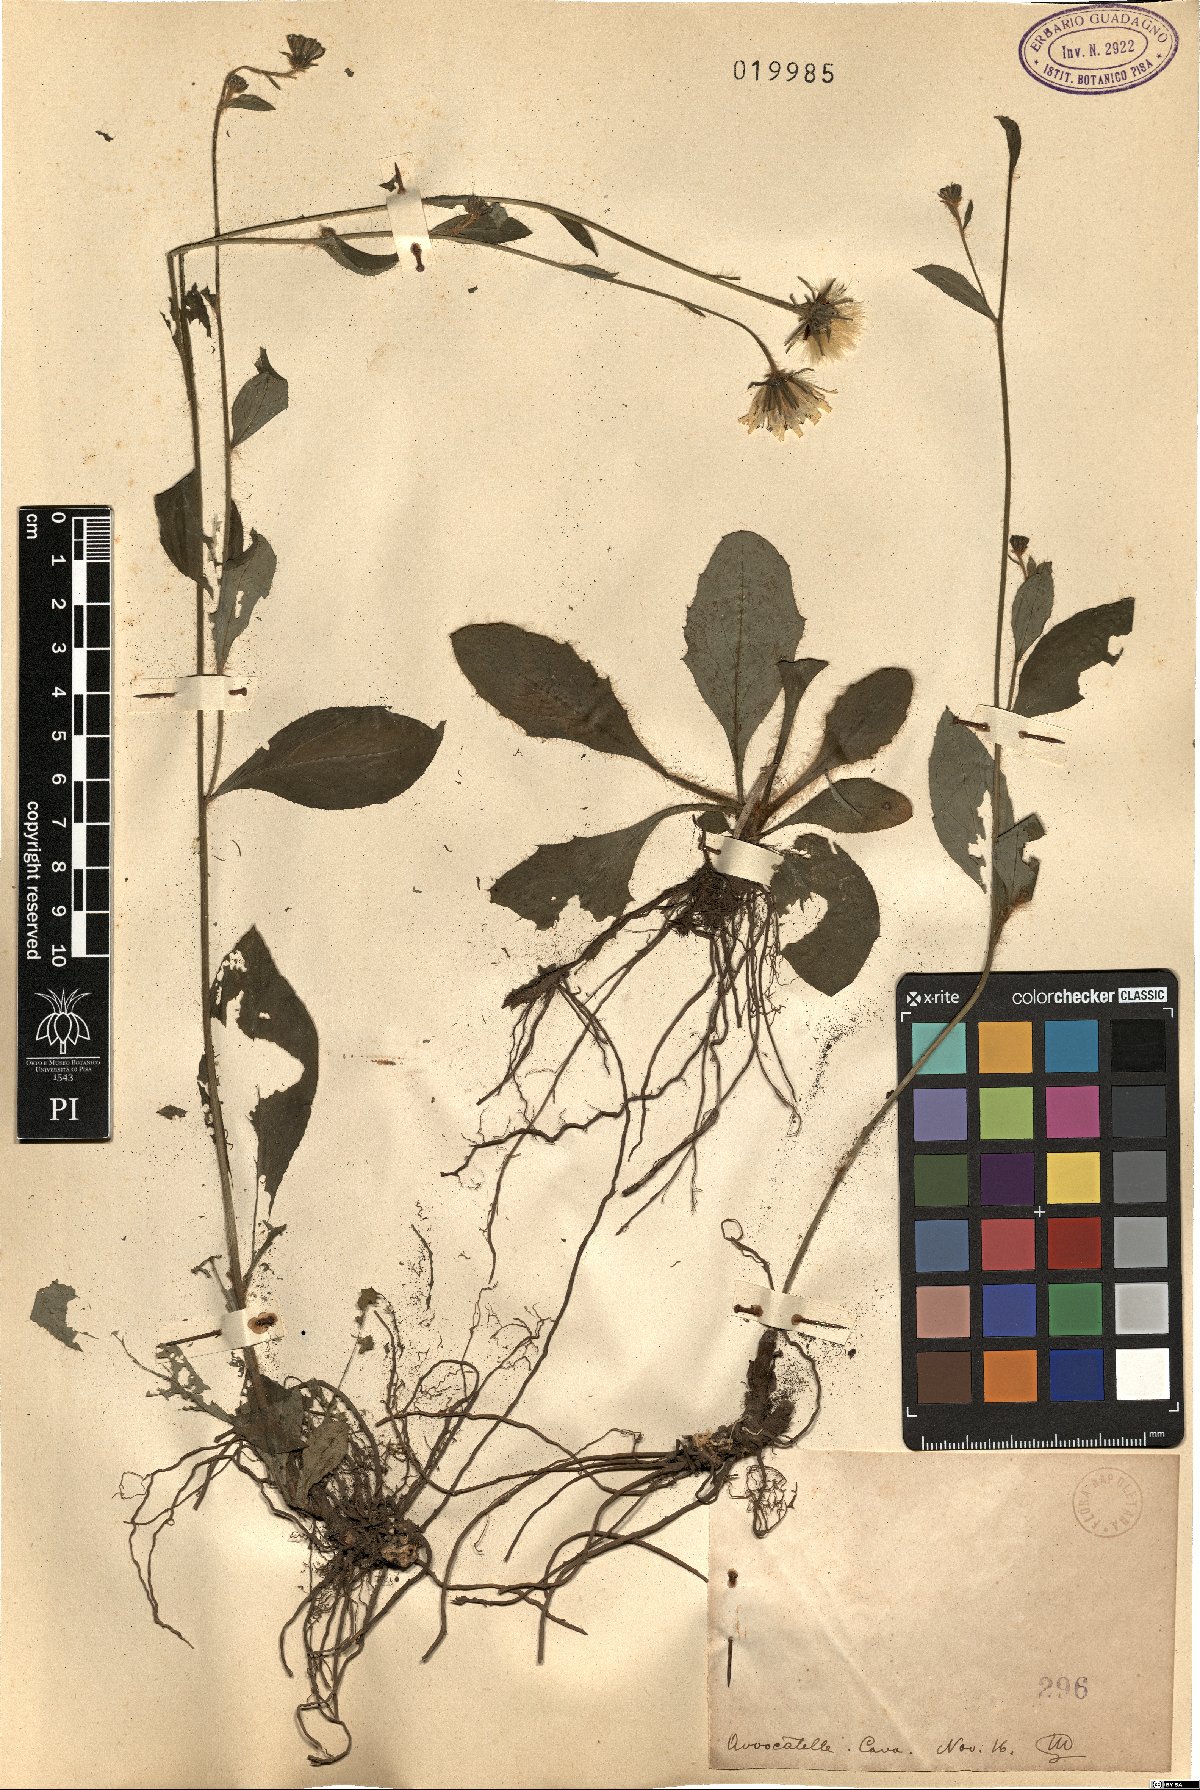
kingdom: Plantae
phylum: Tracheophyta
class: Magnoliopsida
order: Asterales
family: Asteraceae
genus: Hieracium
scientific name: Hieracium
